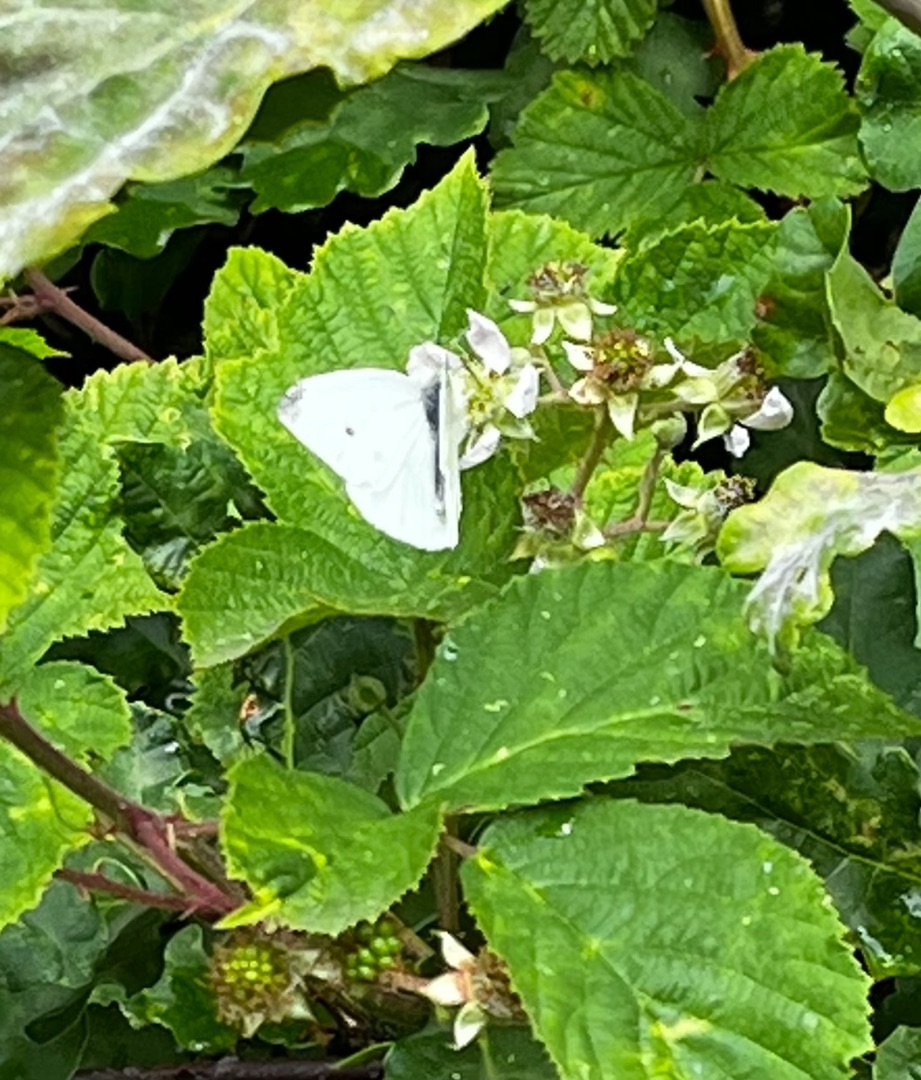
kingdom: Animalia
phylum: Arthropoda
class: Insecta
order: Lepidoptera
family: Pieridae
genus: Pieris
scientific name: Pieris rapae
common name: Lille kålsommerfugl
